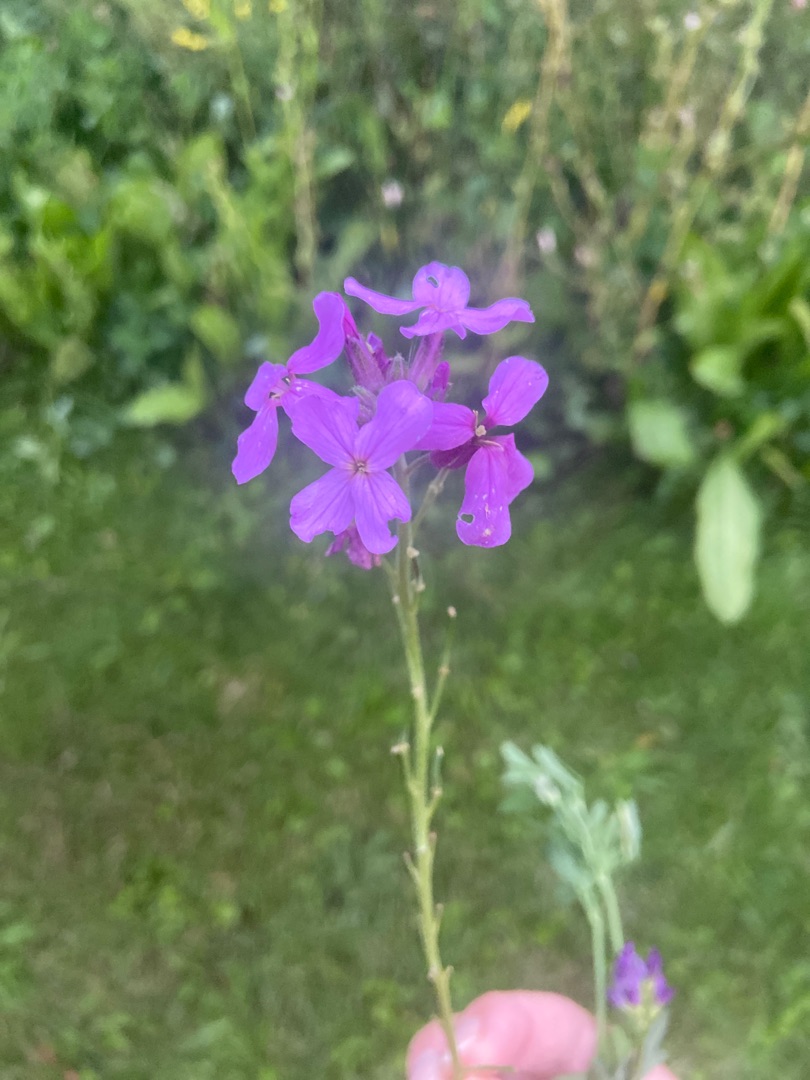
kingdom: Plantae
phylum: Tracheophyta
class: Magnoliopsida
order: Brassicales
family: Brassicaceae
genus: Hesperis
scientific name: Hesperis matronalis
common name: Aftenstjerne
